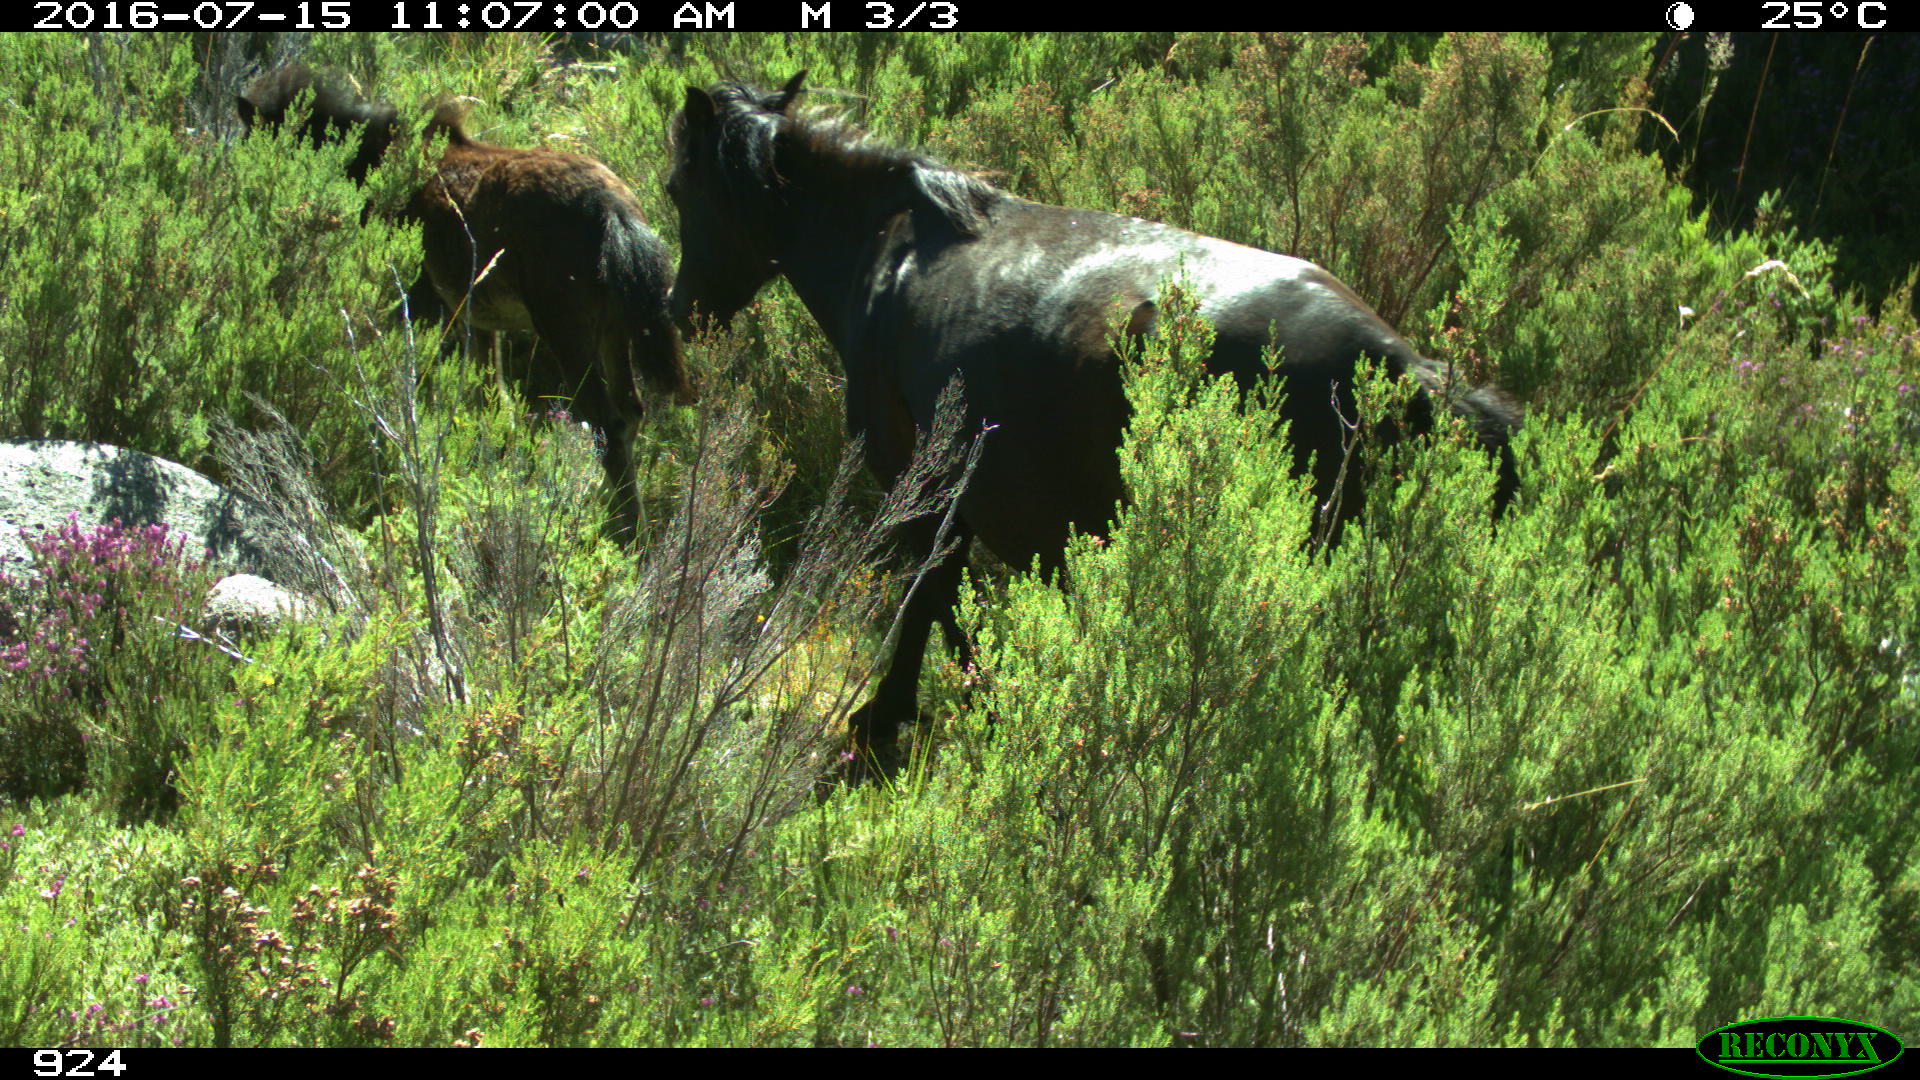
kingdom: Animalia
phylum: Chordata
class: Mammalia
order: Perissodactyla
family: Equidae
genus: Equus
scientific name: Equus caballus
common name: Horse
